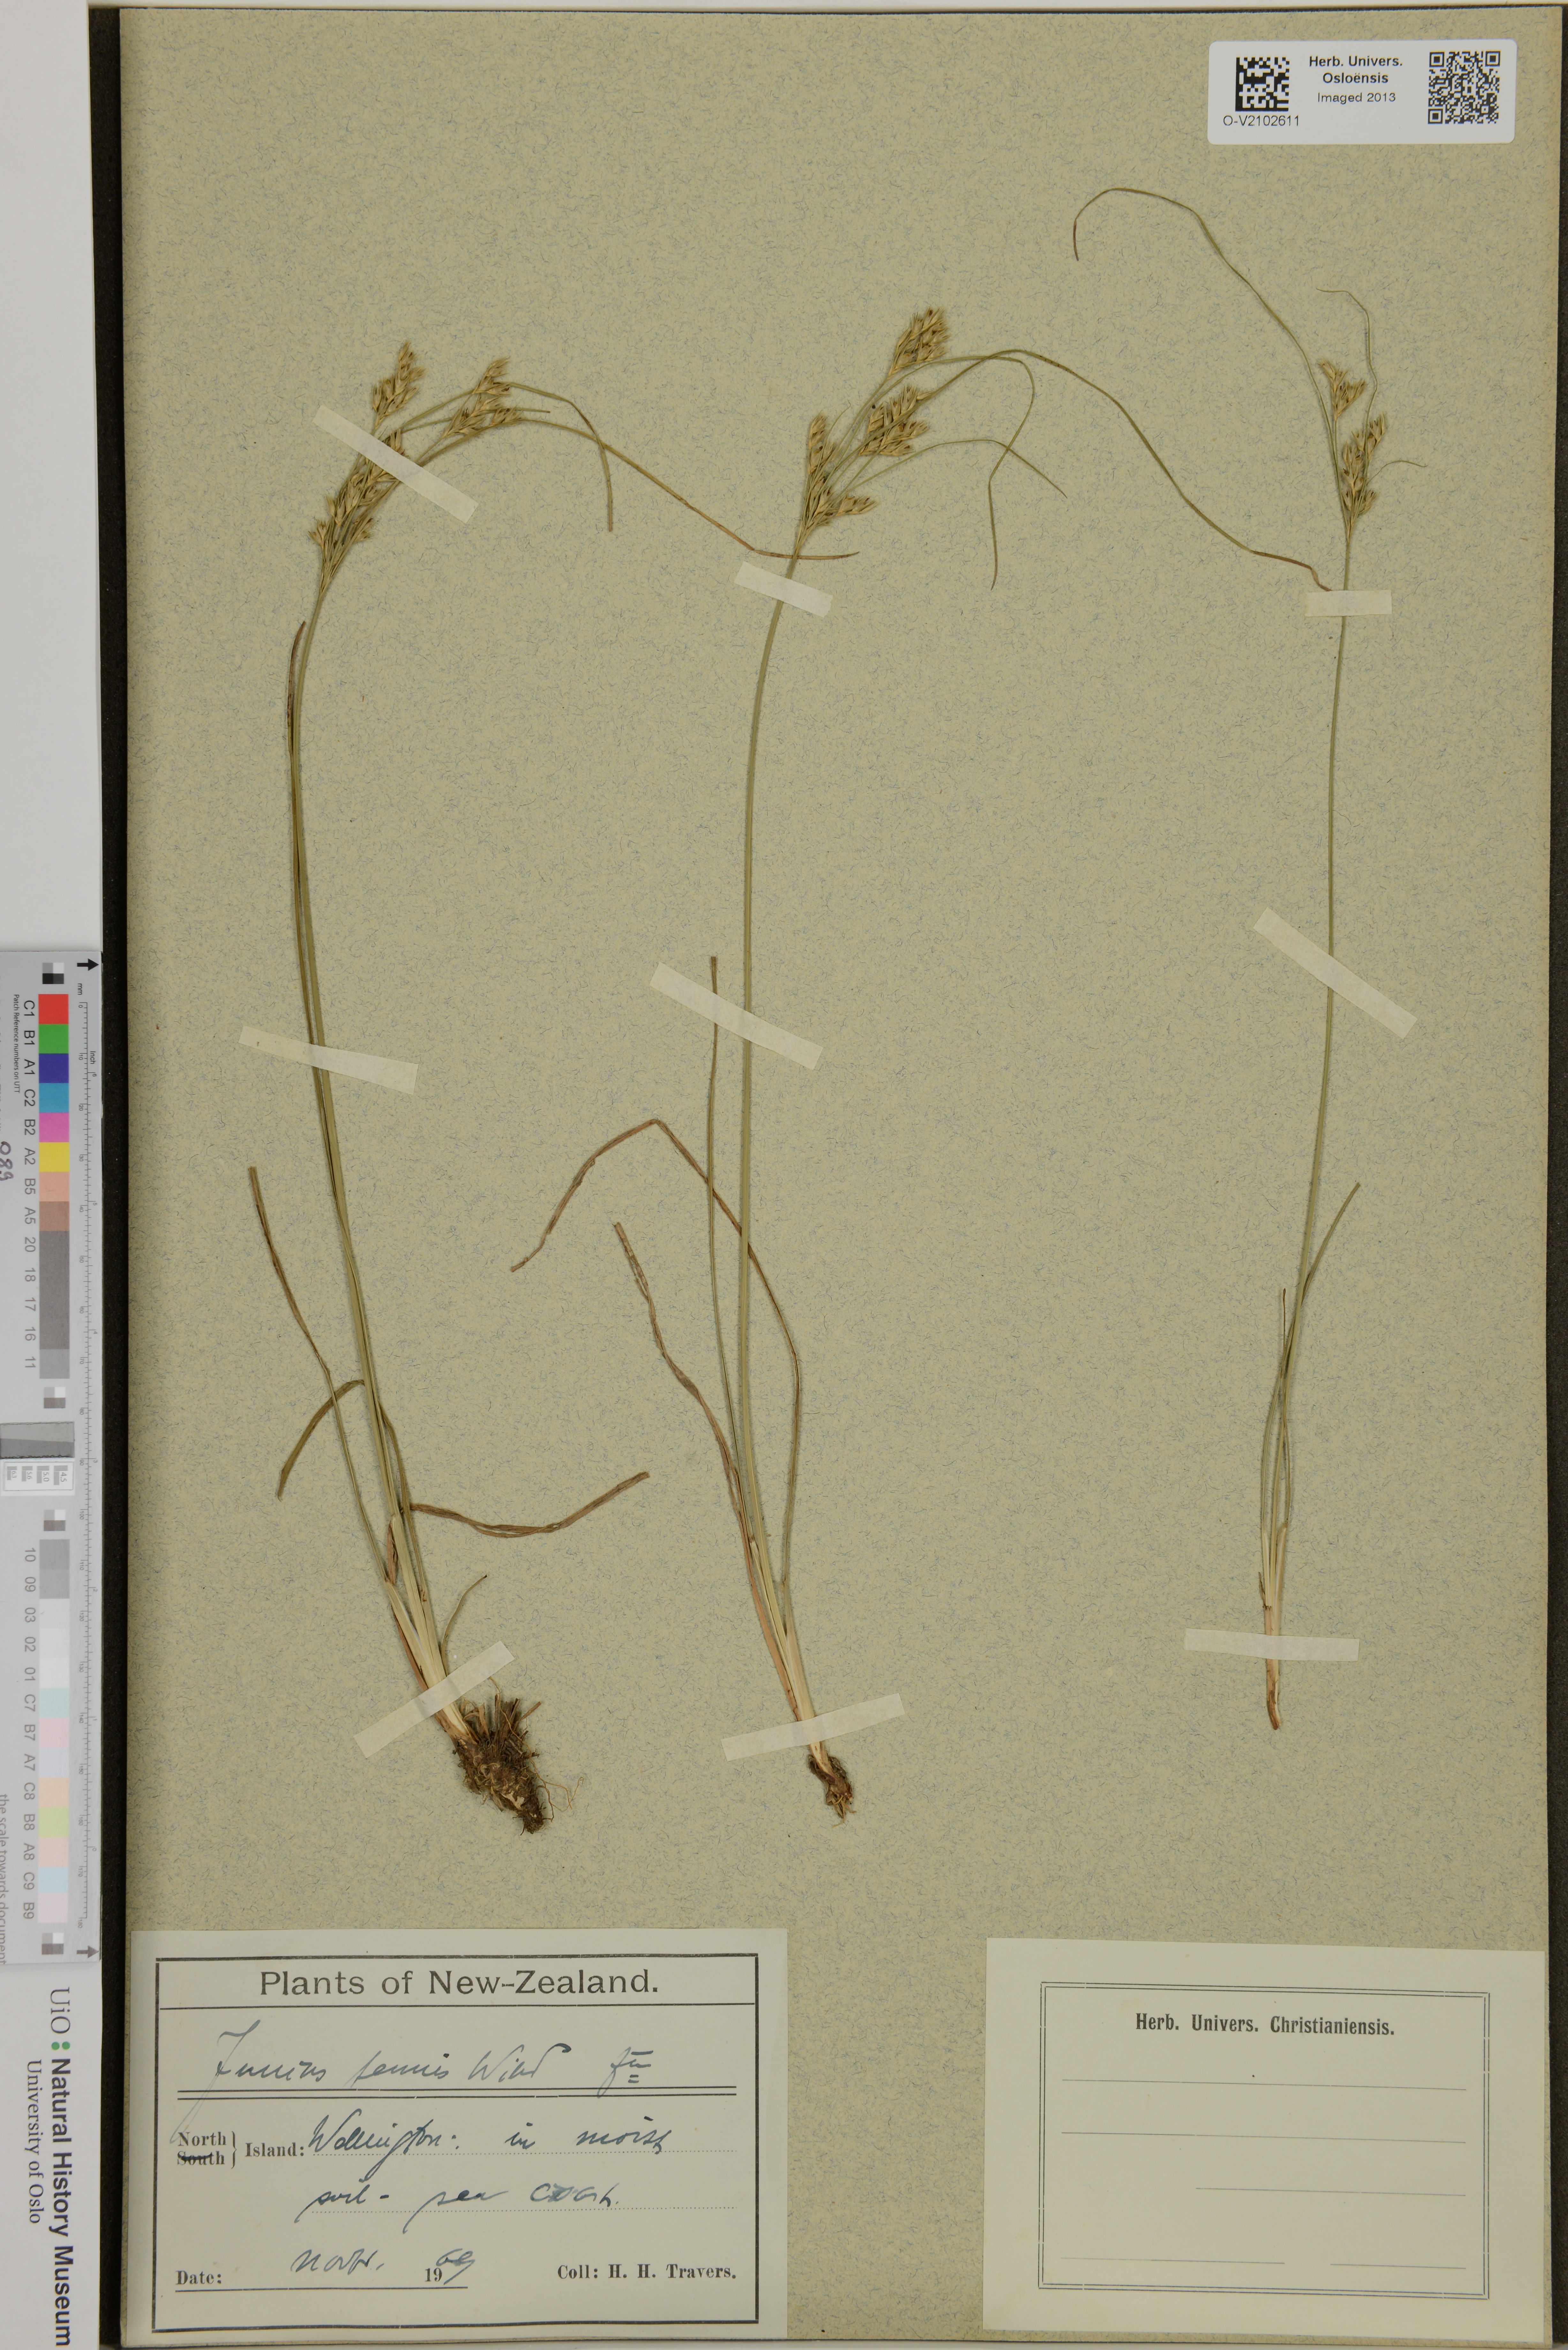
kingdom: Plantae
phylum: Tracheophyta
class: Liliopsida
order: Poales
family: Juncaceae
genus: Juncus
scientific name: Juncus tenuis
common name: Slender rush
